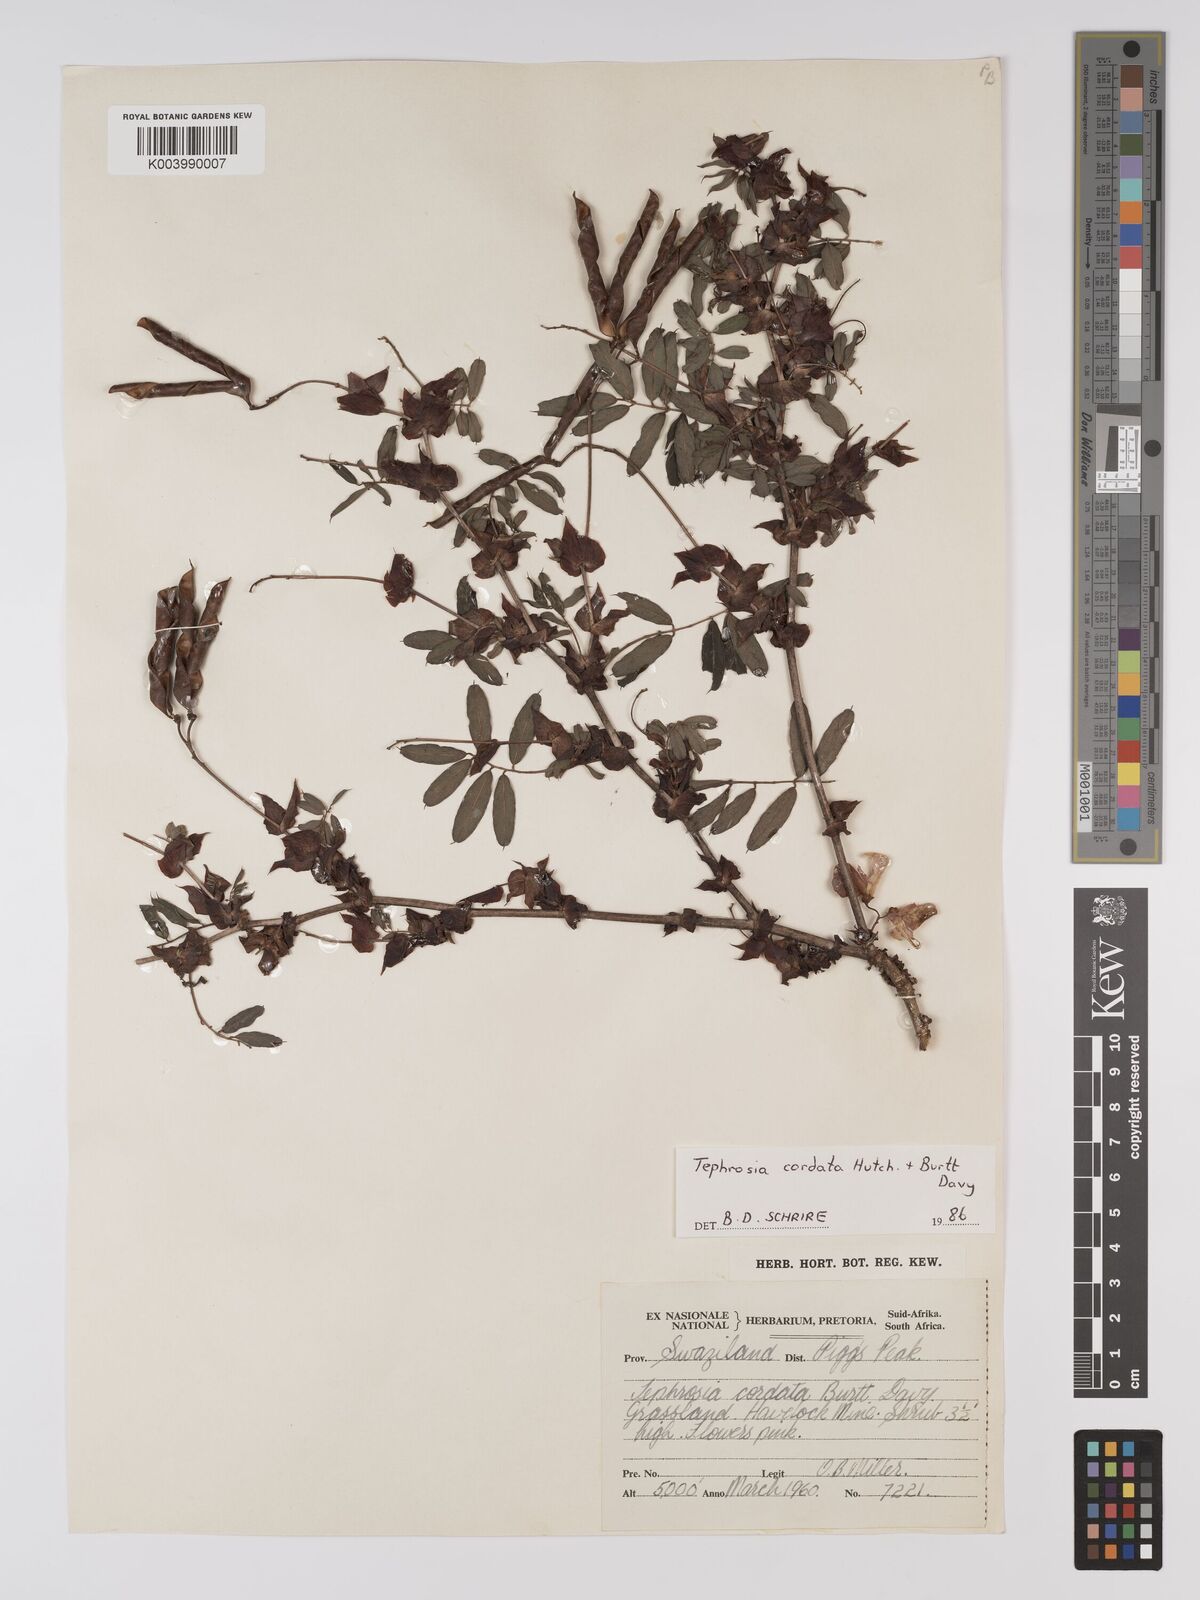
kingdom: Plantae
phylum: Tracheophyta
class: Magnoliopsida
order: Fabales
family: Fabaceae
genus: Tephrosia
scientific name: Tephrosia cordata
